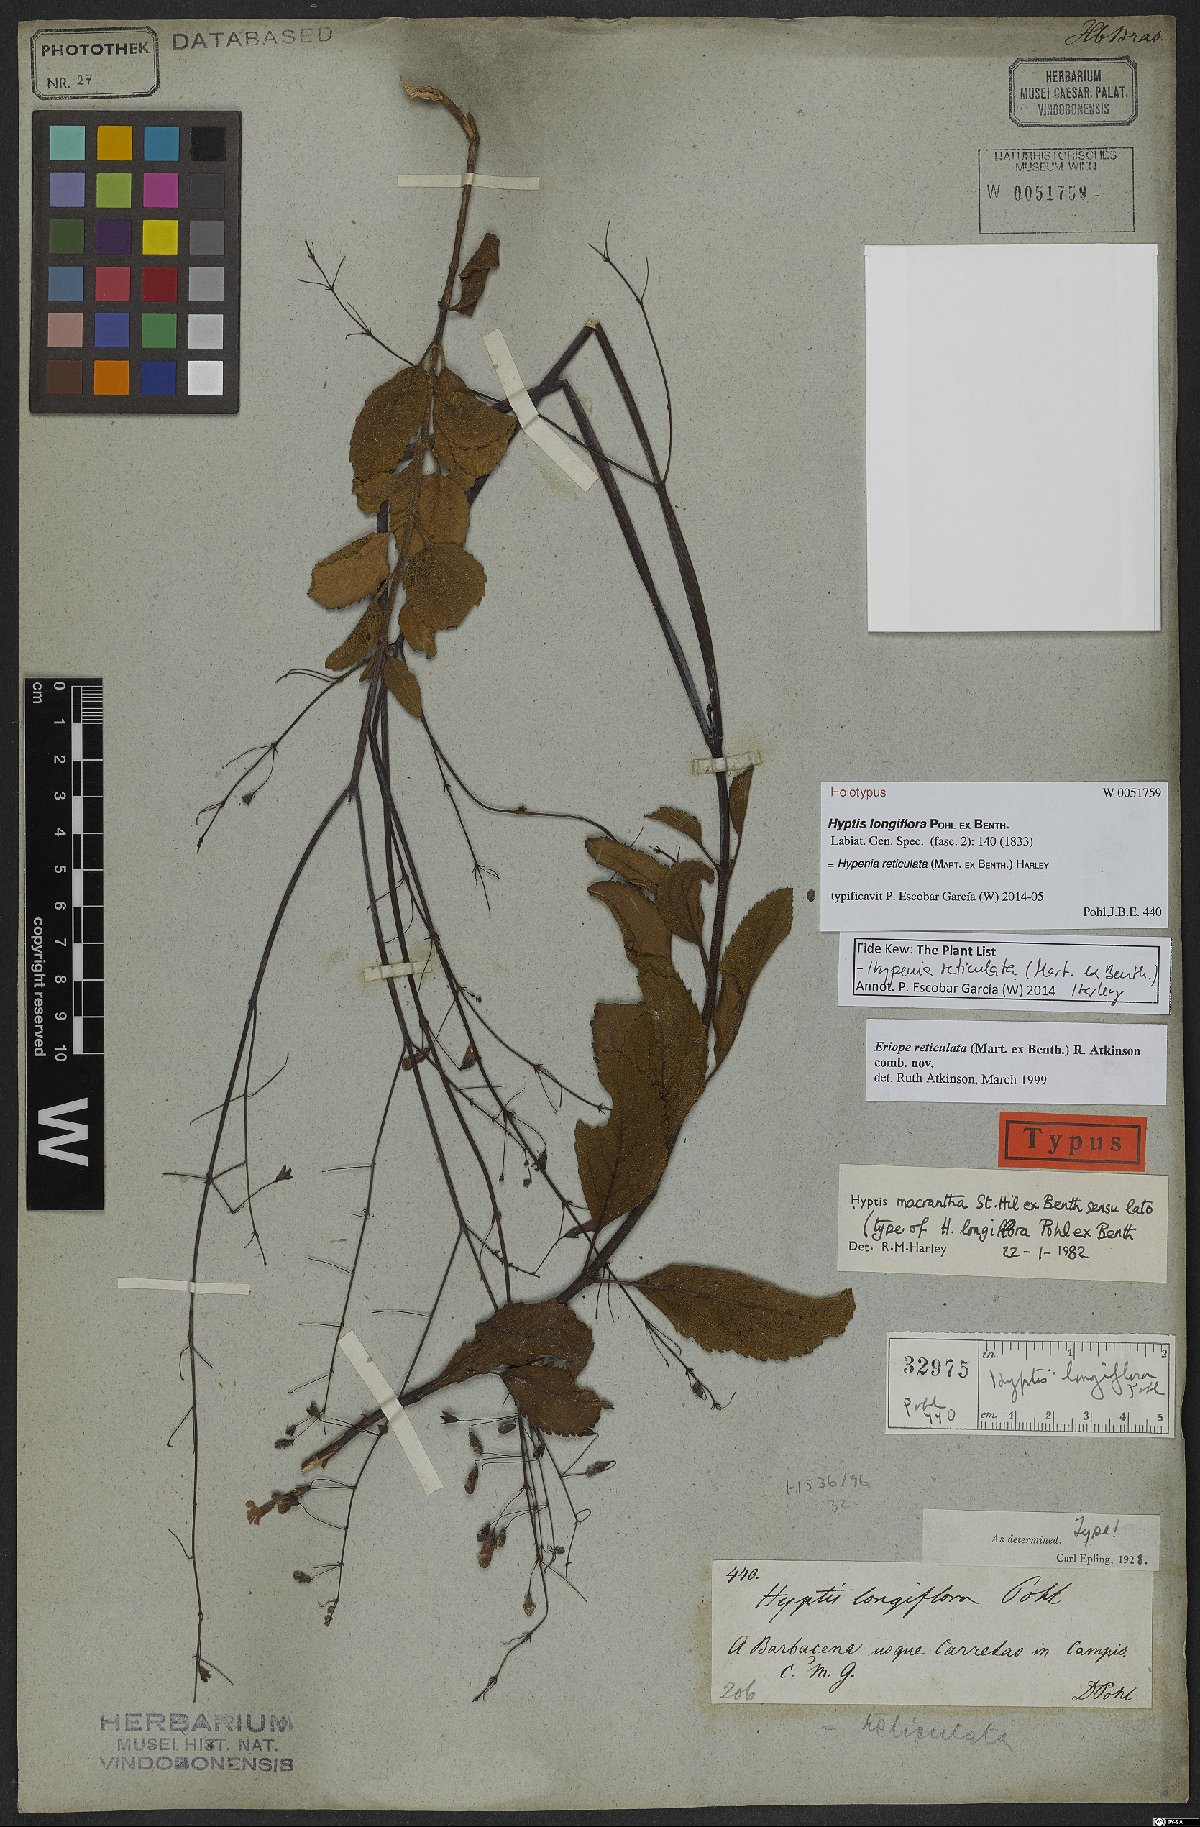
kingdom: Plantae
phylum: Tracheophyta
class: Magnoliopsida
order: Lamiales
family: Lamiaceae
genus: Hypenia
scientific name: Hypenia reticulata
